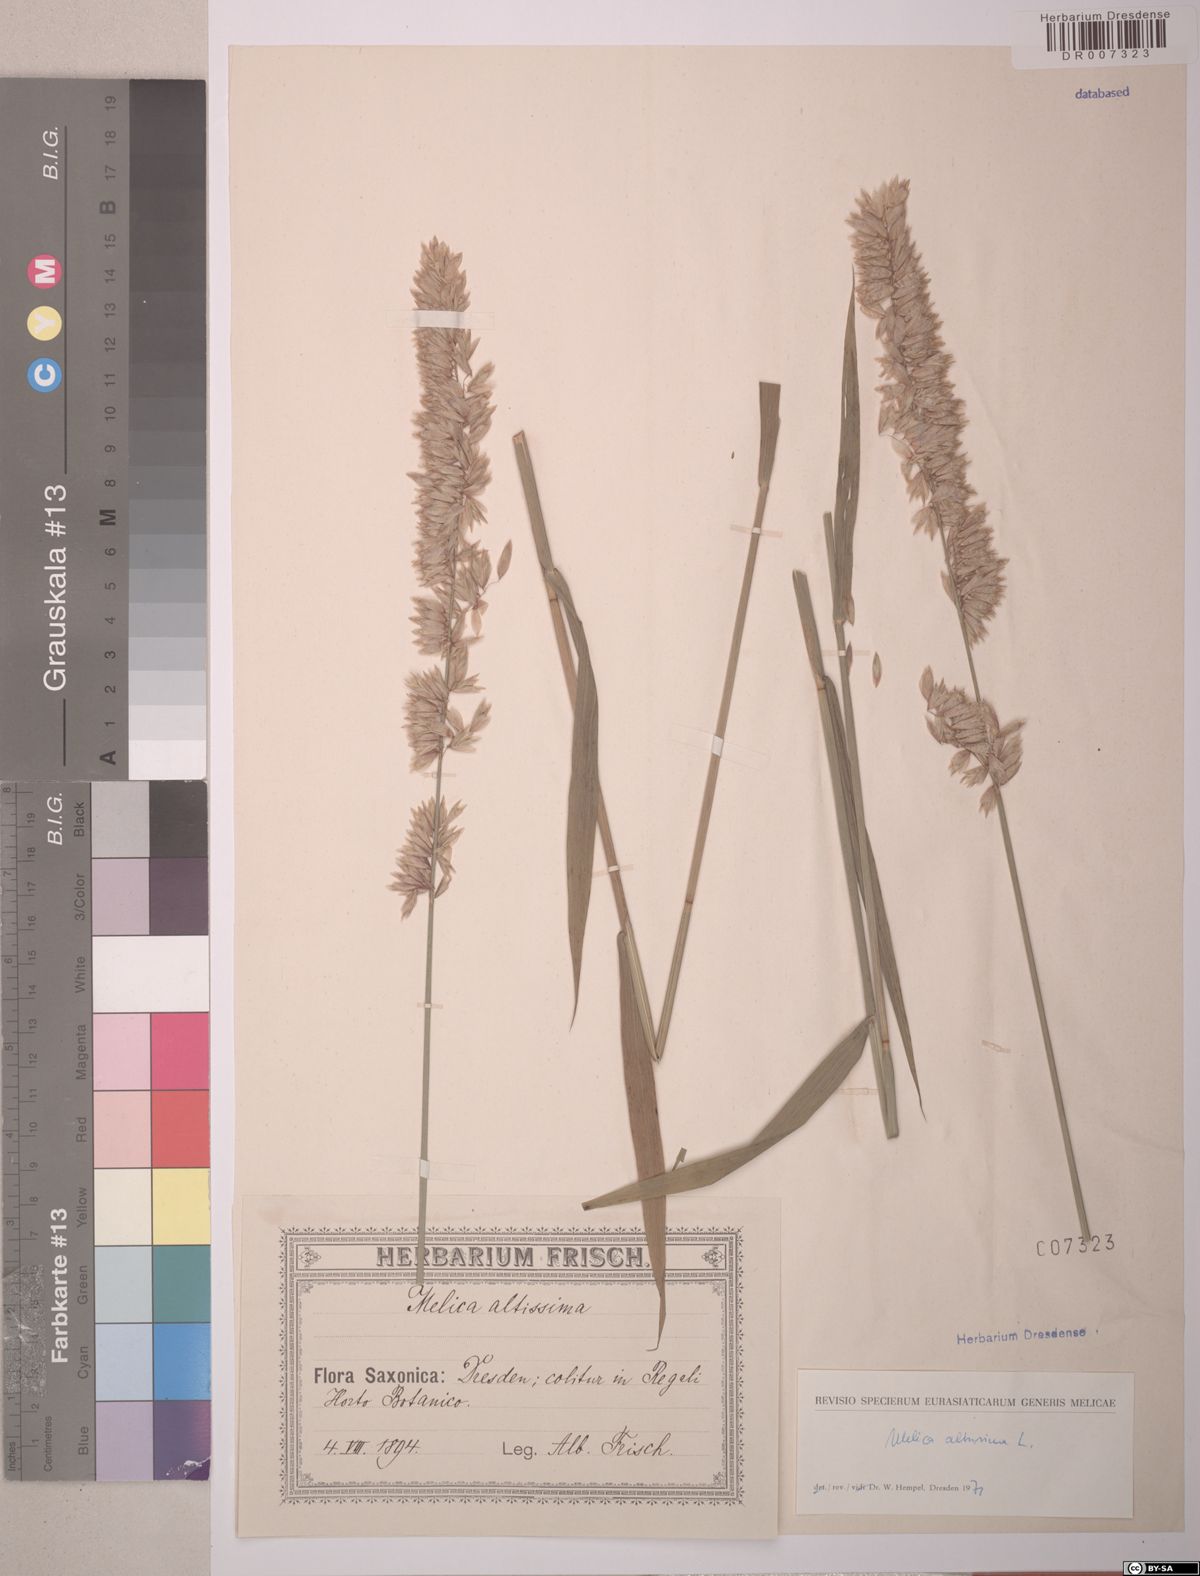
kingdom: Plantae
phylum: Tracheophyta
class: Liliopsida
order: Poales
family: Poaceae
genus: Melica
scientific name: Melica altissima
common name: Siberian melicgrass
